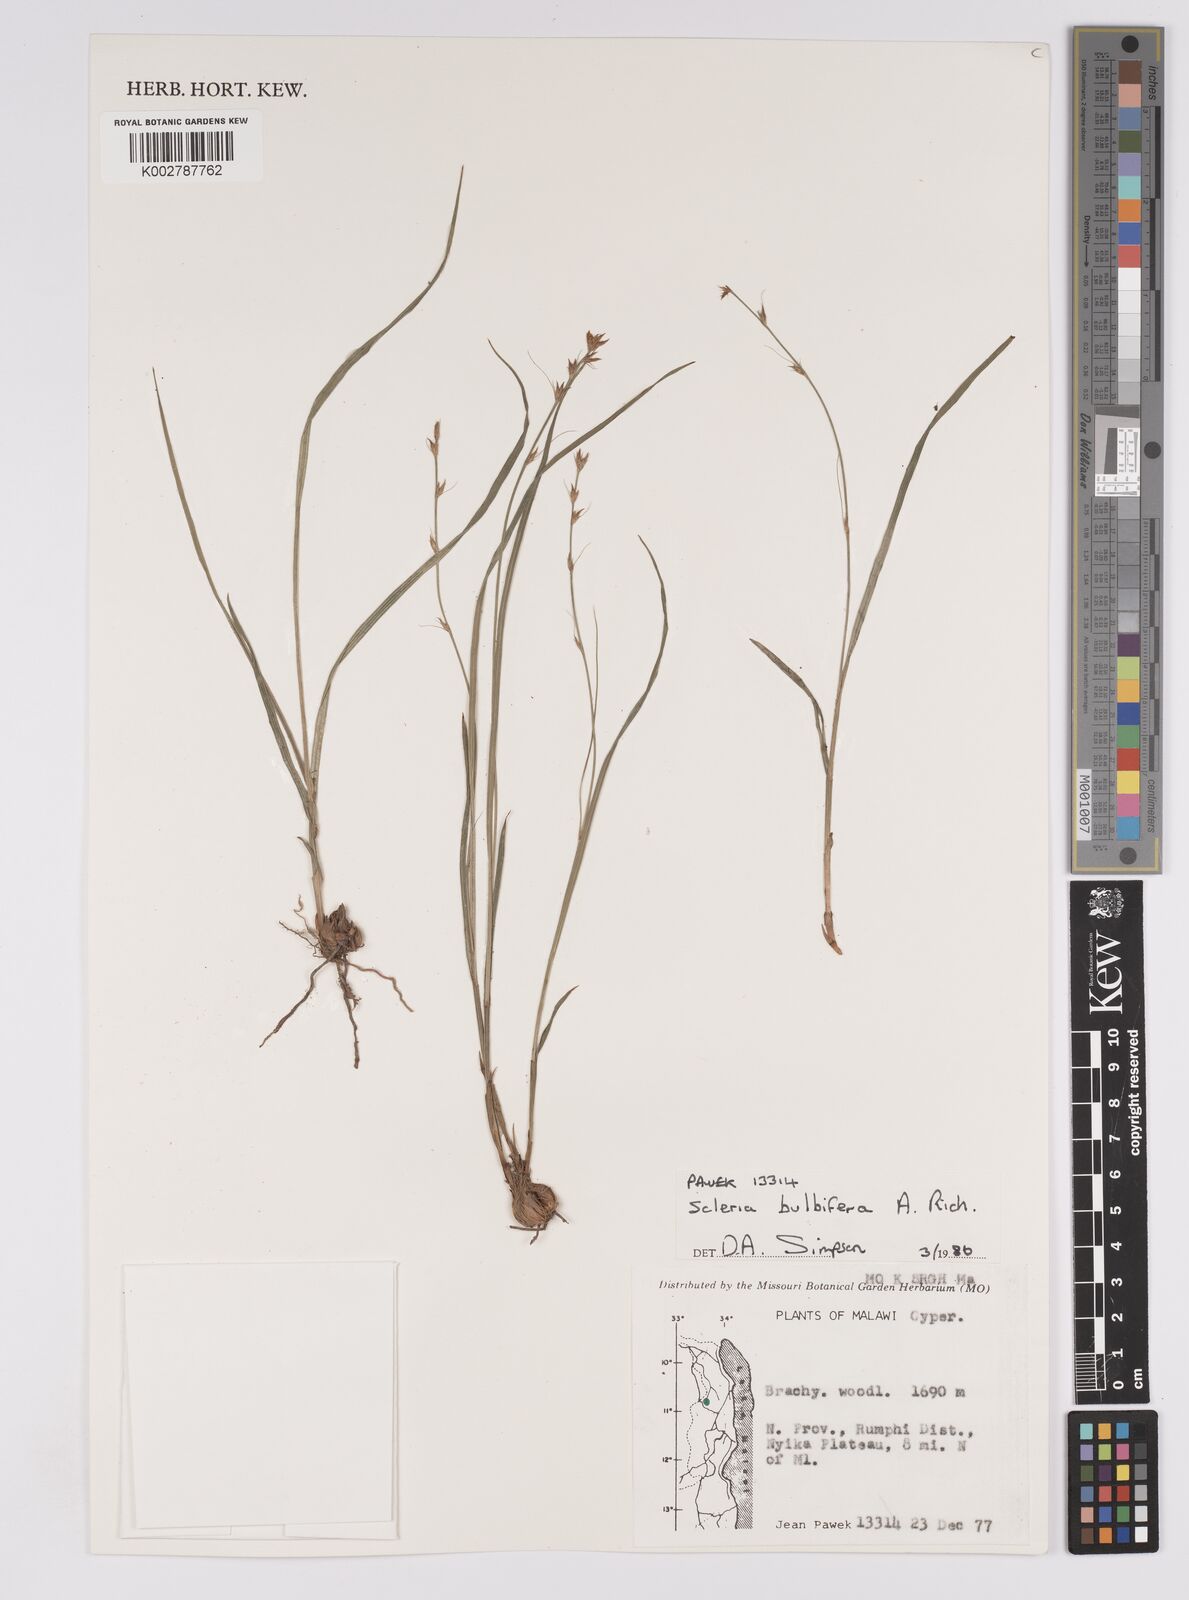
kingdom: Plantae
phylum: Tracheophyta
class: Liliopsida
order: Poales
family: Cyperaceae
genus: Scleria
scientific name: Scleria bulbifera
